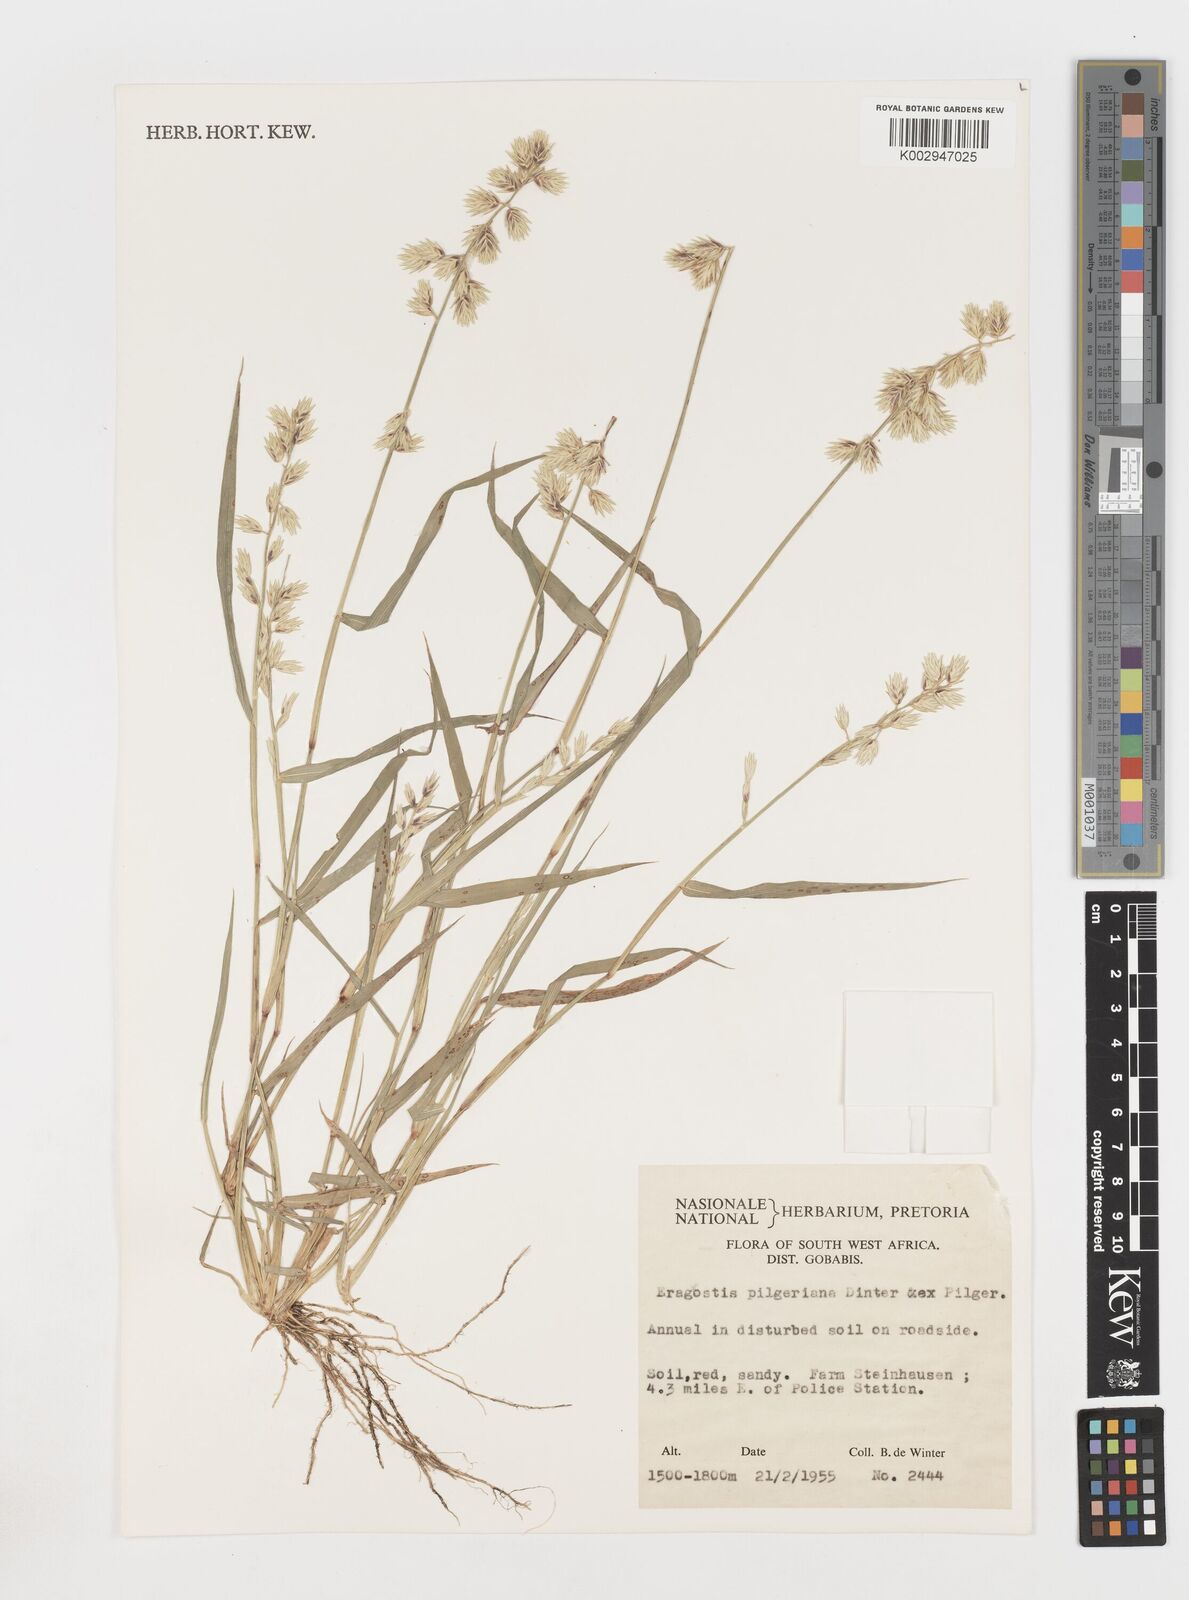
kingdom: Plantae
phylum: Tracheophyta
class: Liliopsida
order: Poales
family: Poaceae
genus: Eragrostis
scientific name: Eragrostis pilgeriana
